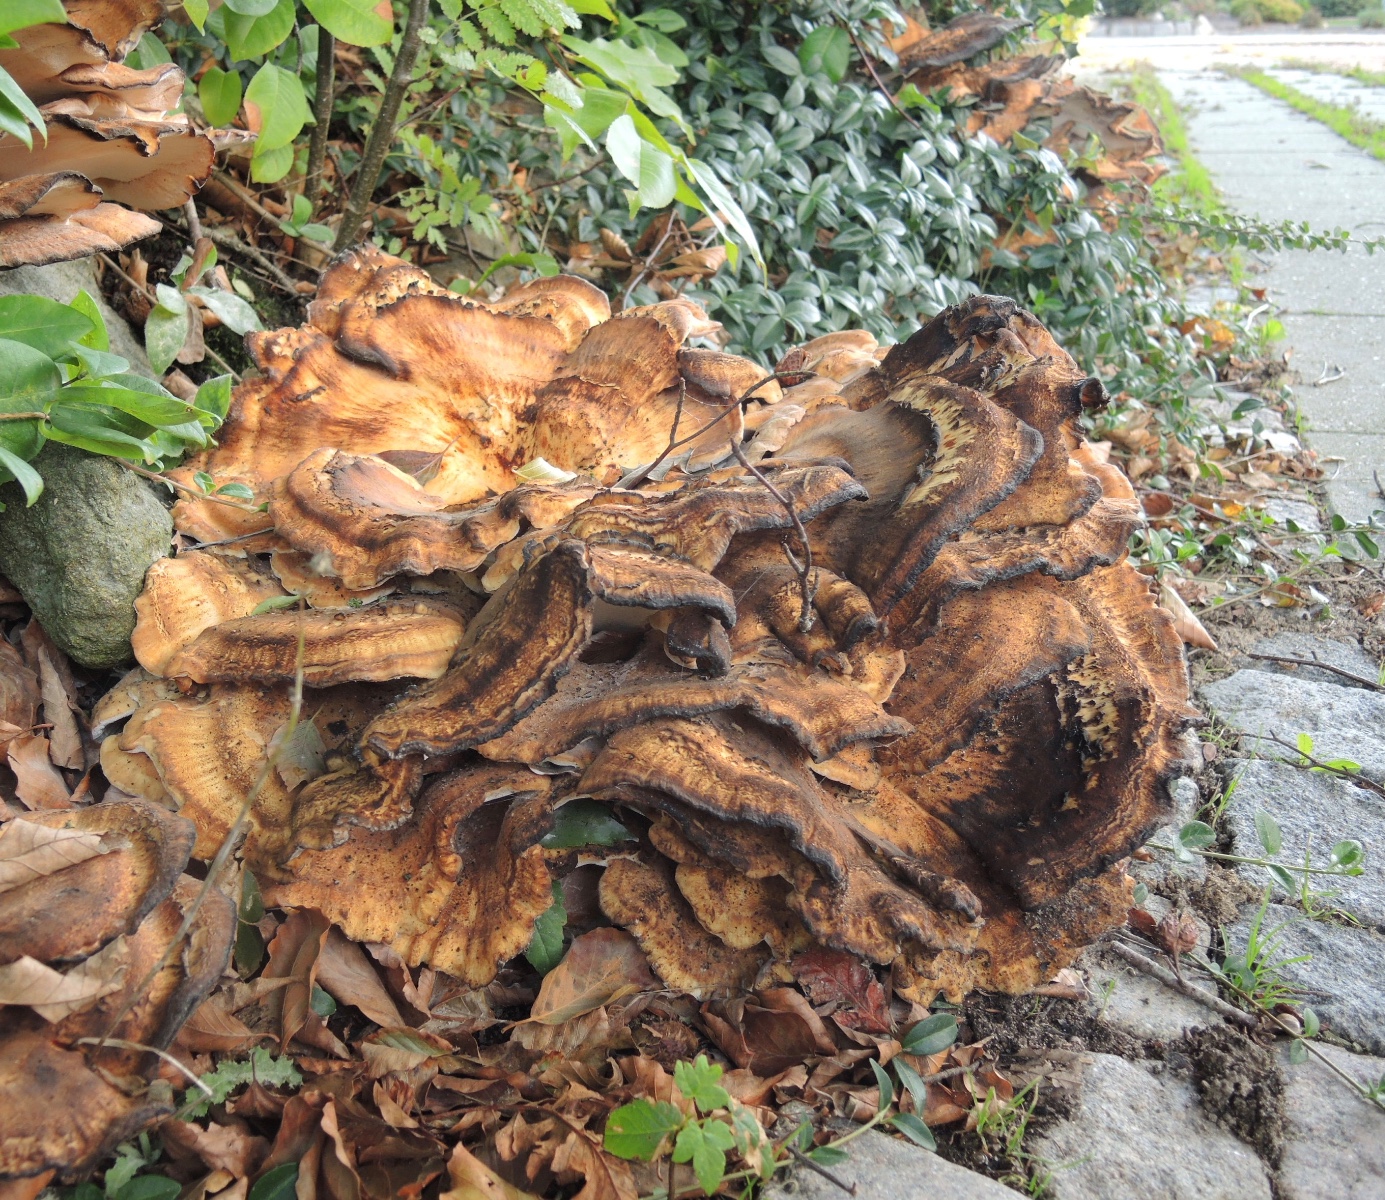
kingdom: Fungi
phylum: Basidiomycota
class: Agaricomycetes
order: Polyporales
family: Meripilaceae
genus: Meripilus
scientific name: Meripilus giganteus
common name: kæmpeporesvamp
